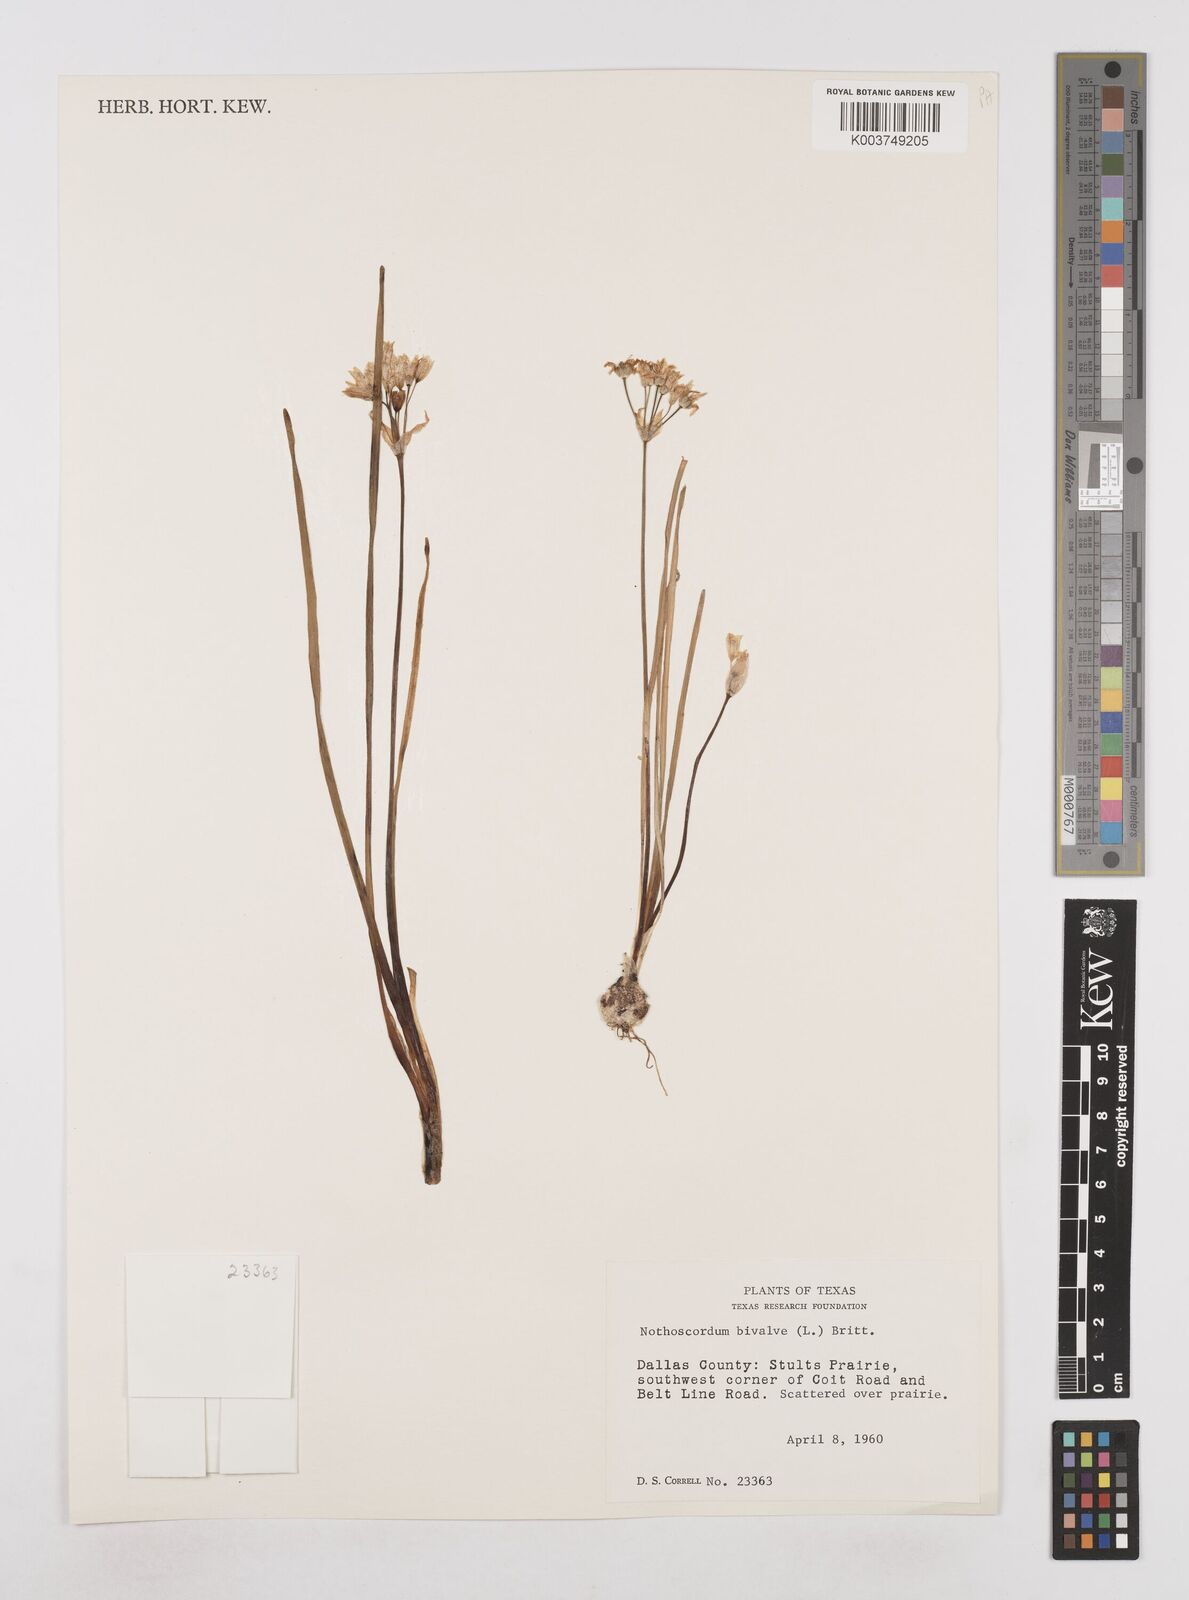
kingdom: Plantae
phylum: Tracheophyta
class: Liliopsida
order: Asparagales
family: Amaryllidaceae
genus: Nothoscordum
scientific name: Nothoscordum bivalve
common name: Crow-poison
